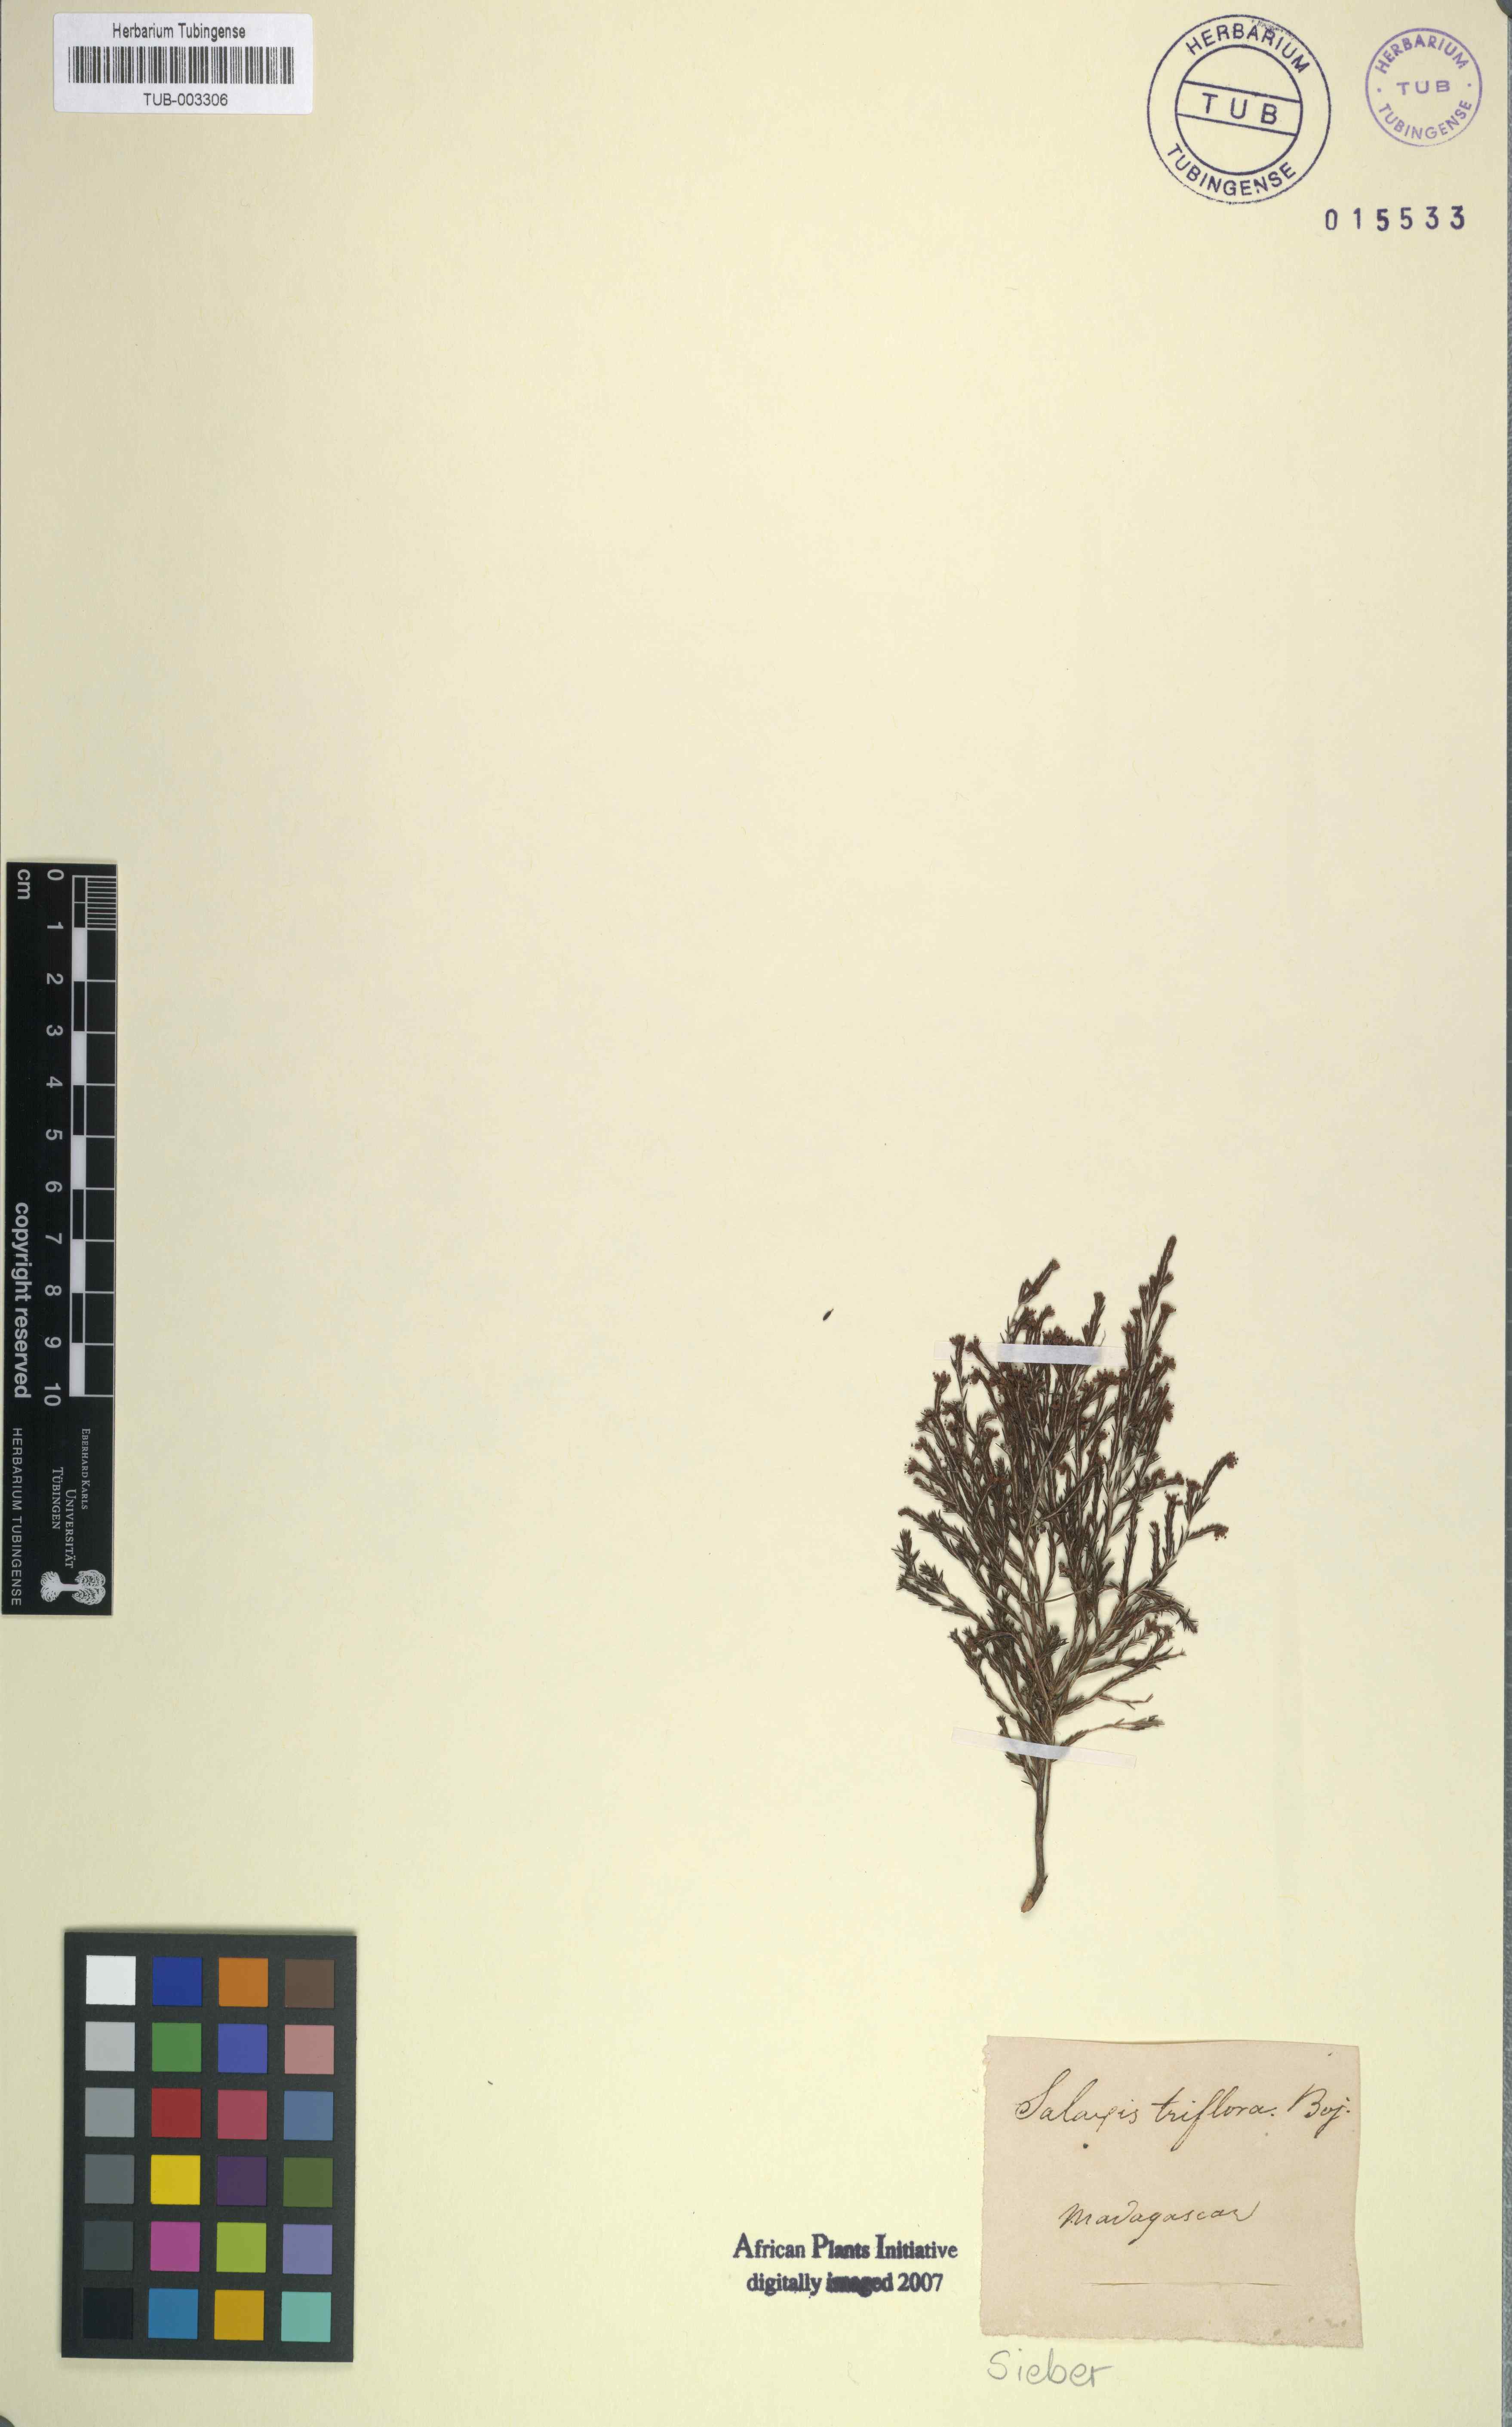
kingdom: Plantae
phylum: Tracheophyta
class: Magnoliopsida
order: Ericales
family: Ericaceae
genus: Erica
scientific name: Erica terniflora
